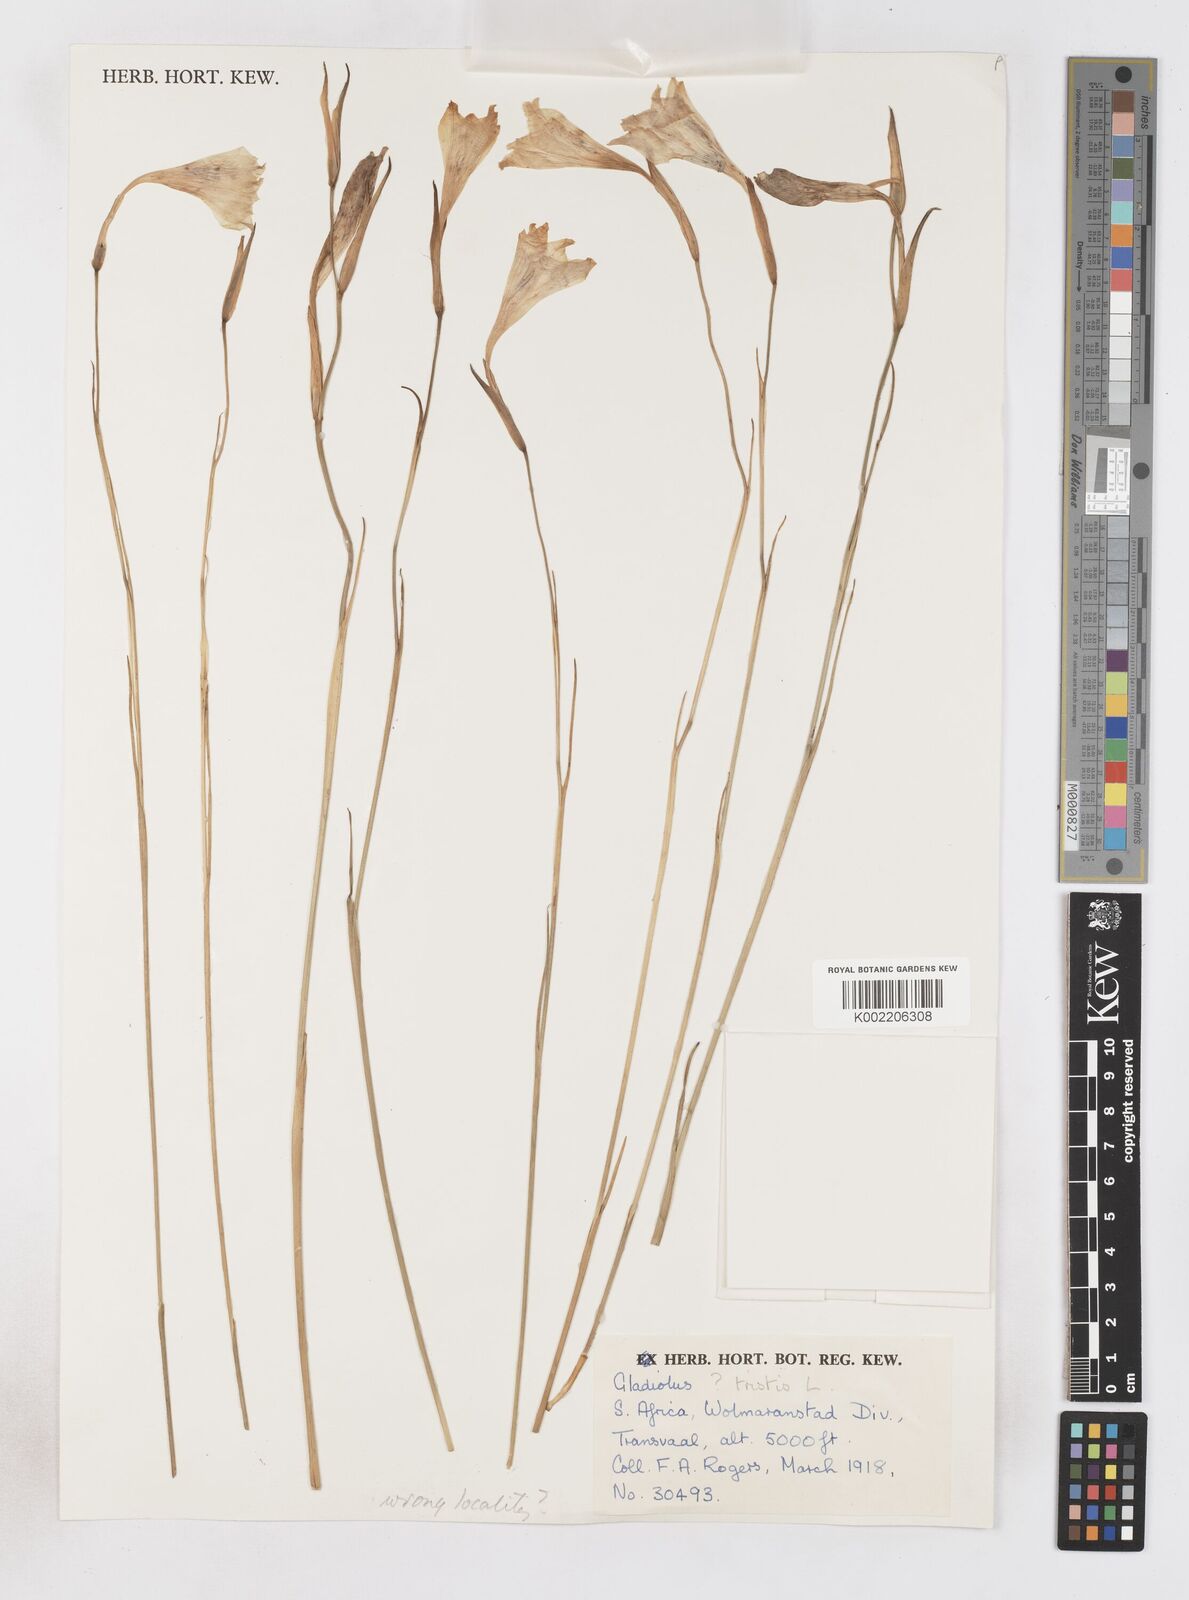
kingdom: Plantae
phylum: Tracheophyta
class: Liliopsida
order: Asparagales
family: Iridaceae
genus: Gladiolus
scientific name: Gladiolus maculatus
